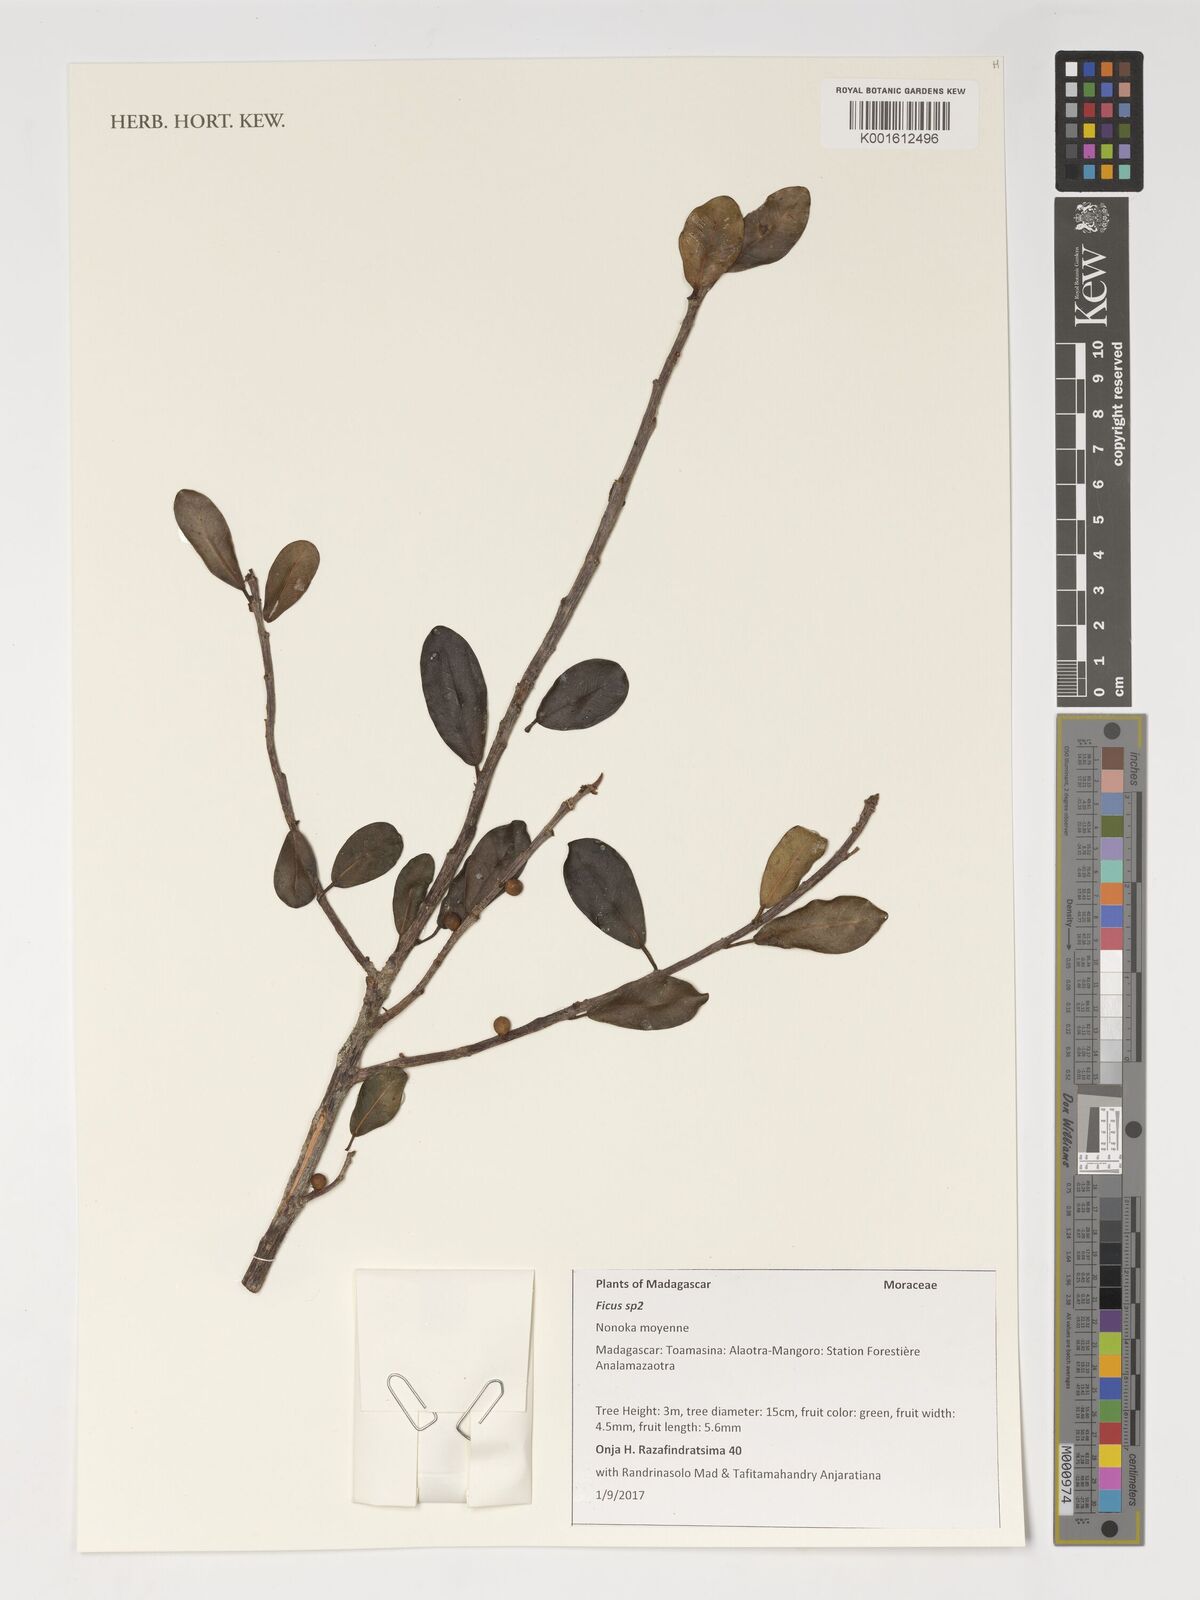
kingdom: Plantae
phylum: Tracheophyta
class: Magnoliopsida
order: Rosales
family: Moraceae
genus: Ficus
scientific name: Ficus
